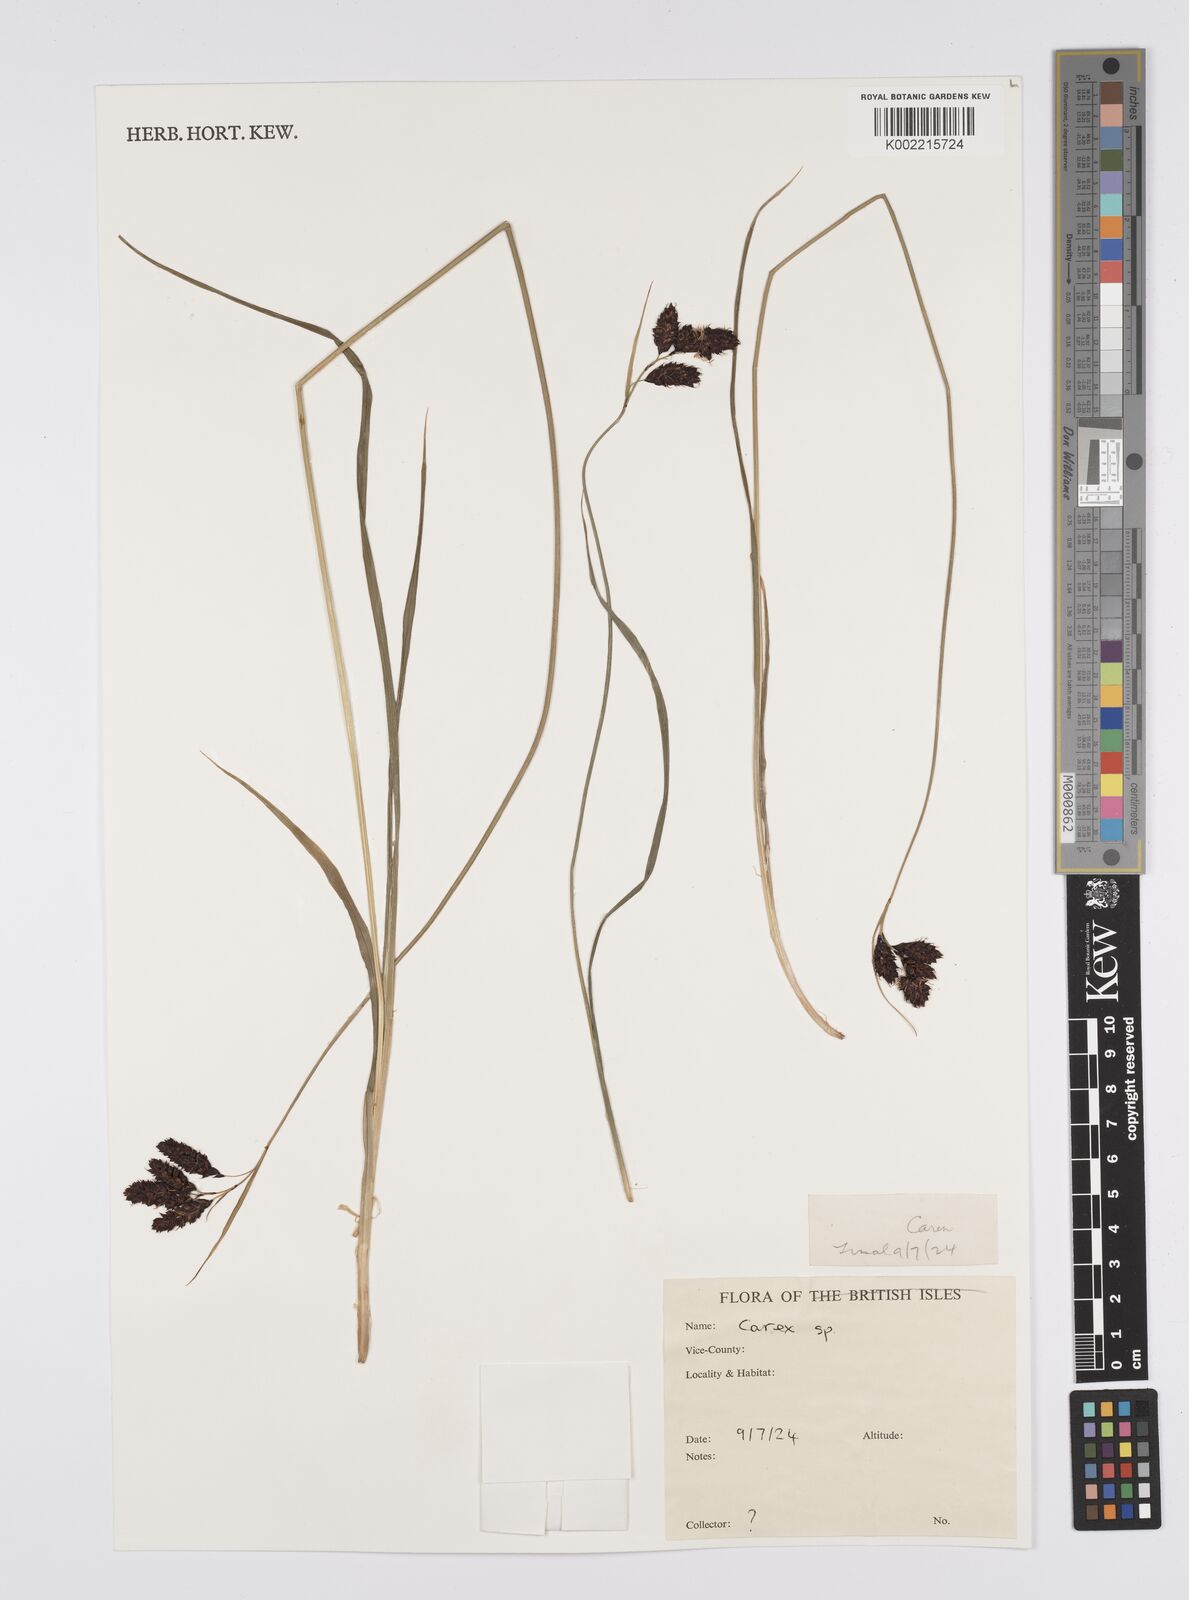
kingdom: Plantae
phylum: Tracheophyta
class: Liliopsida
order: Poales
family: Cyperaceae
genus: Carex
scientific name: Carex
